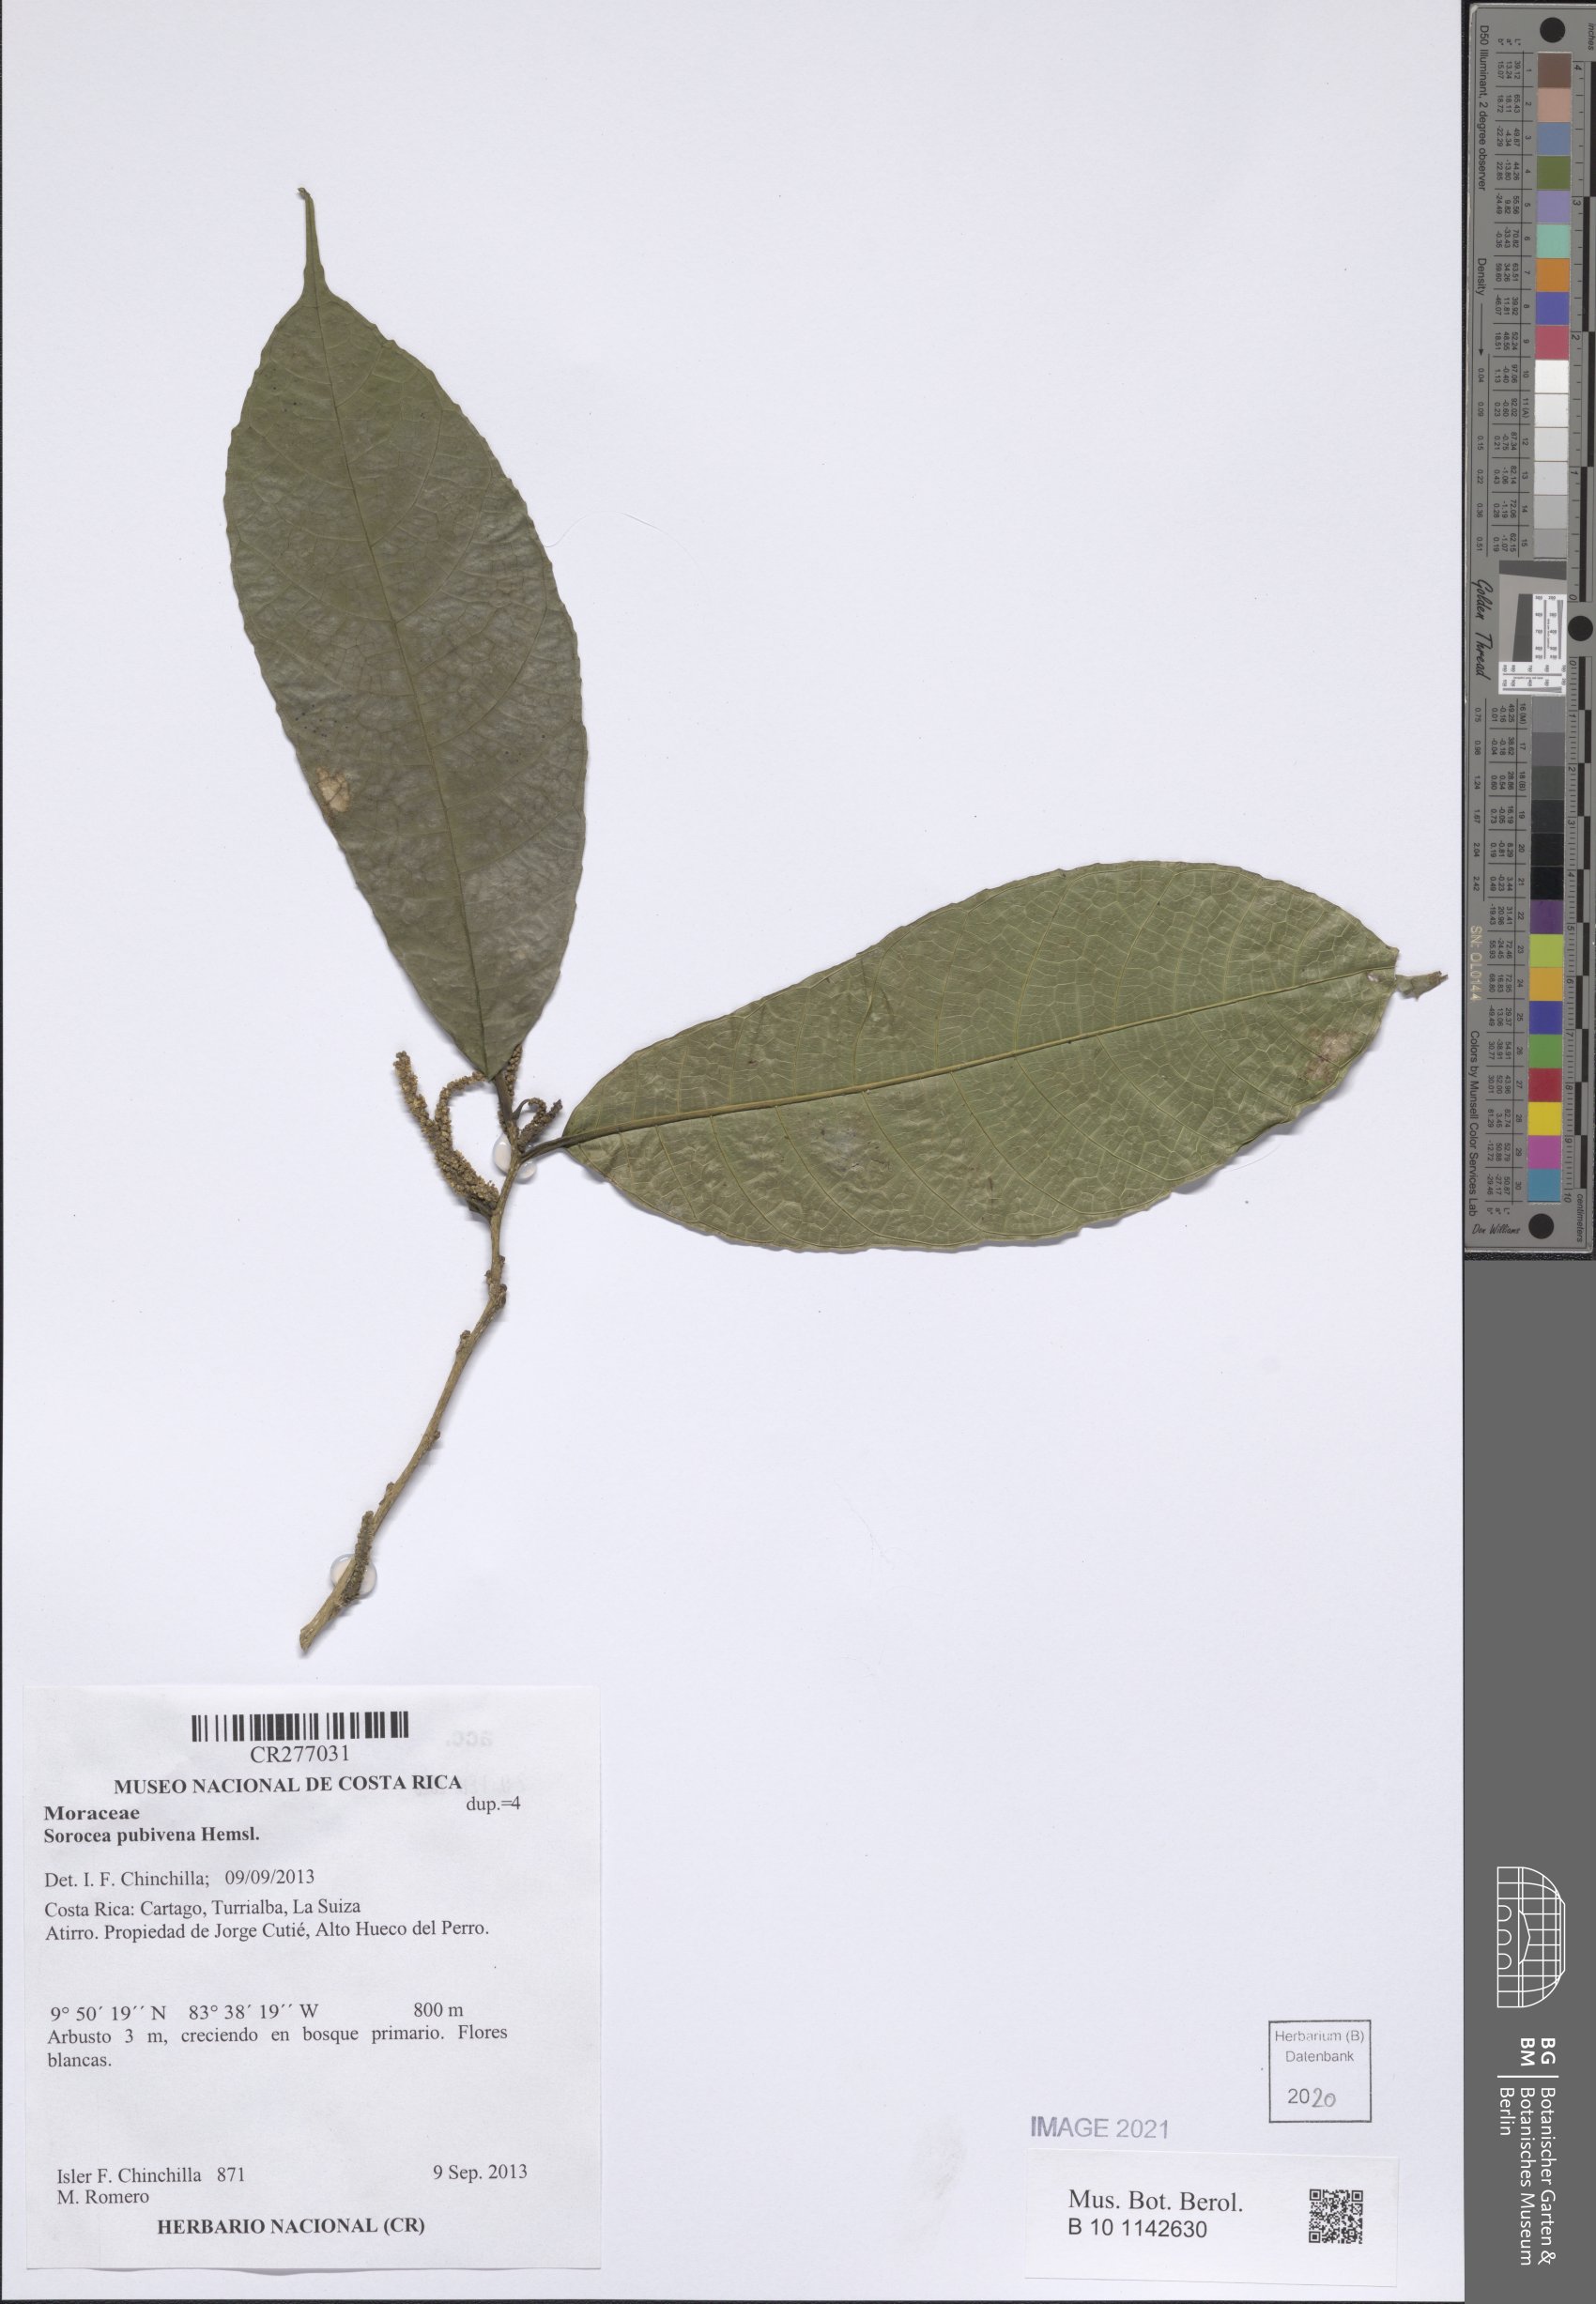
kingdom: Plantae
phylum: Tracheophyta
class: Magnoliopsida
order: Rosales
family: Moraceae
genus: Sorocea
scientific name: Sorocea pubivena
